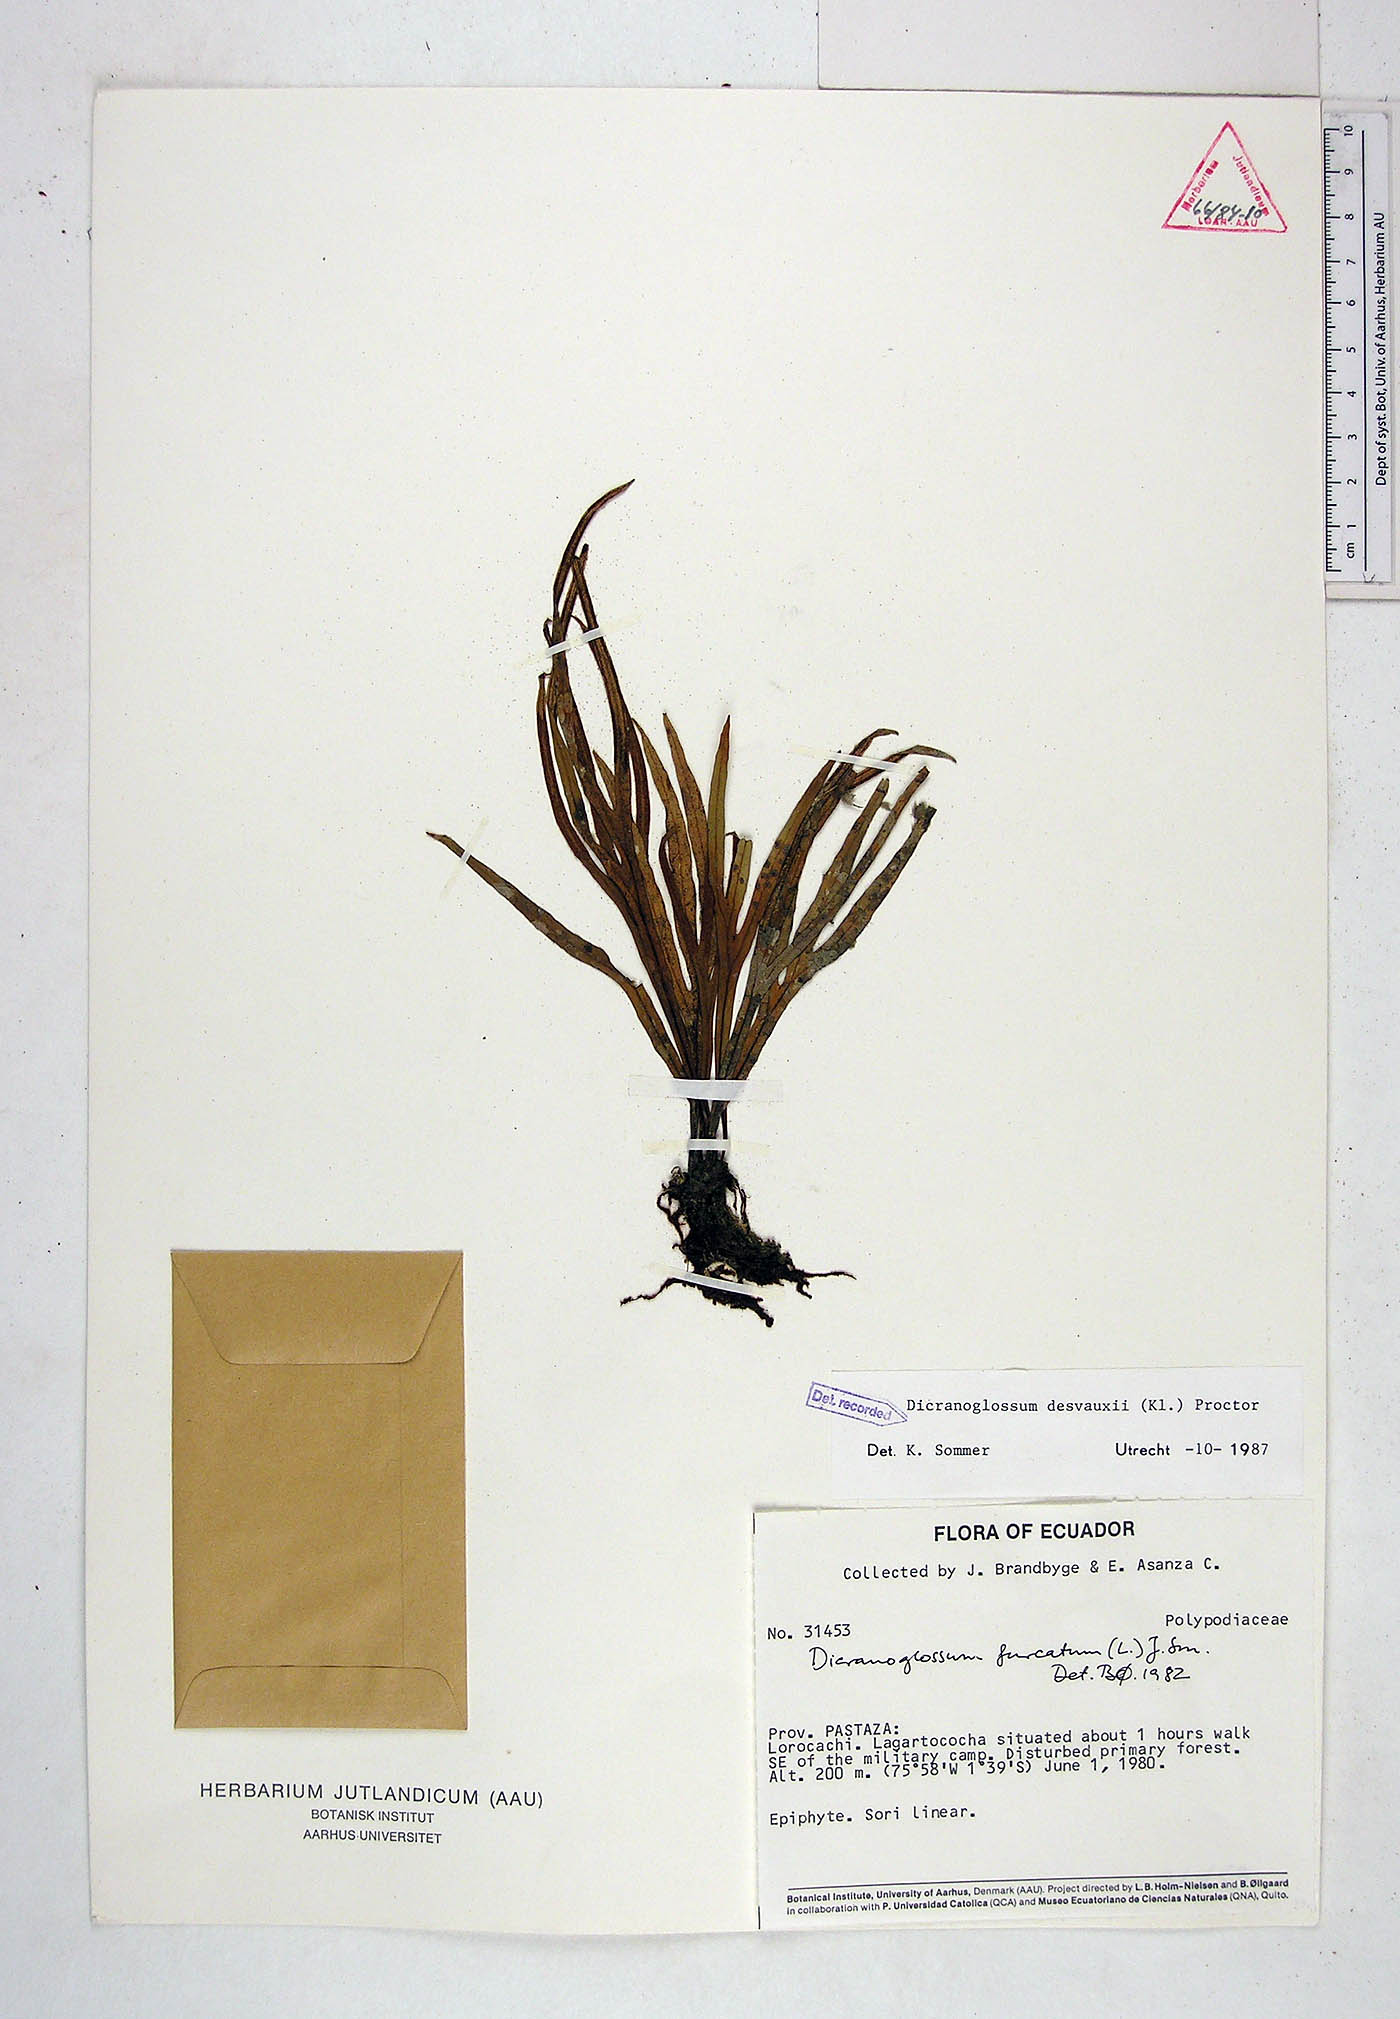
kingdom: Plantae
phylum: Tracheophyta
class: Polypodiopsida
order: Polypodiales
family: Polypodiaceae
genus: Pleopeltis
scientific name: Pleopeltis desvauxii
